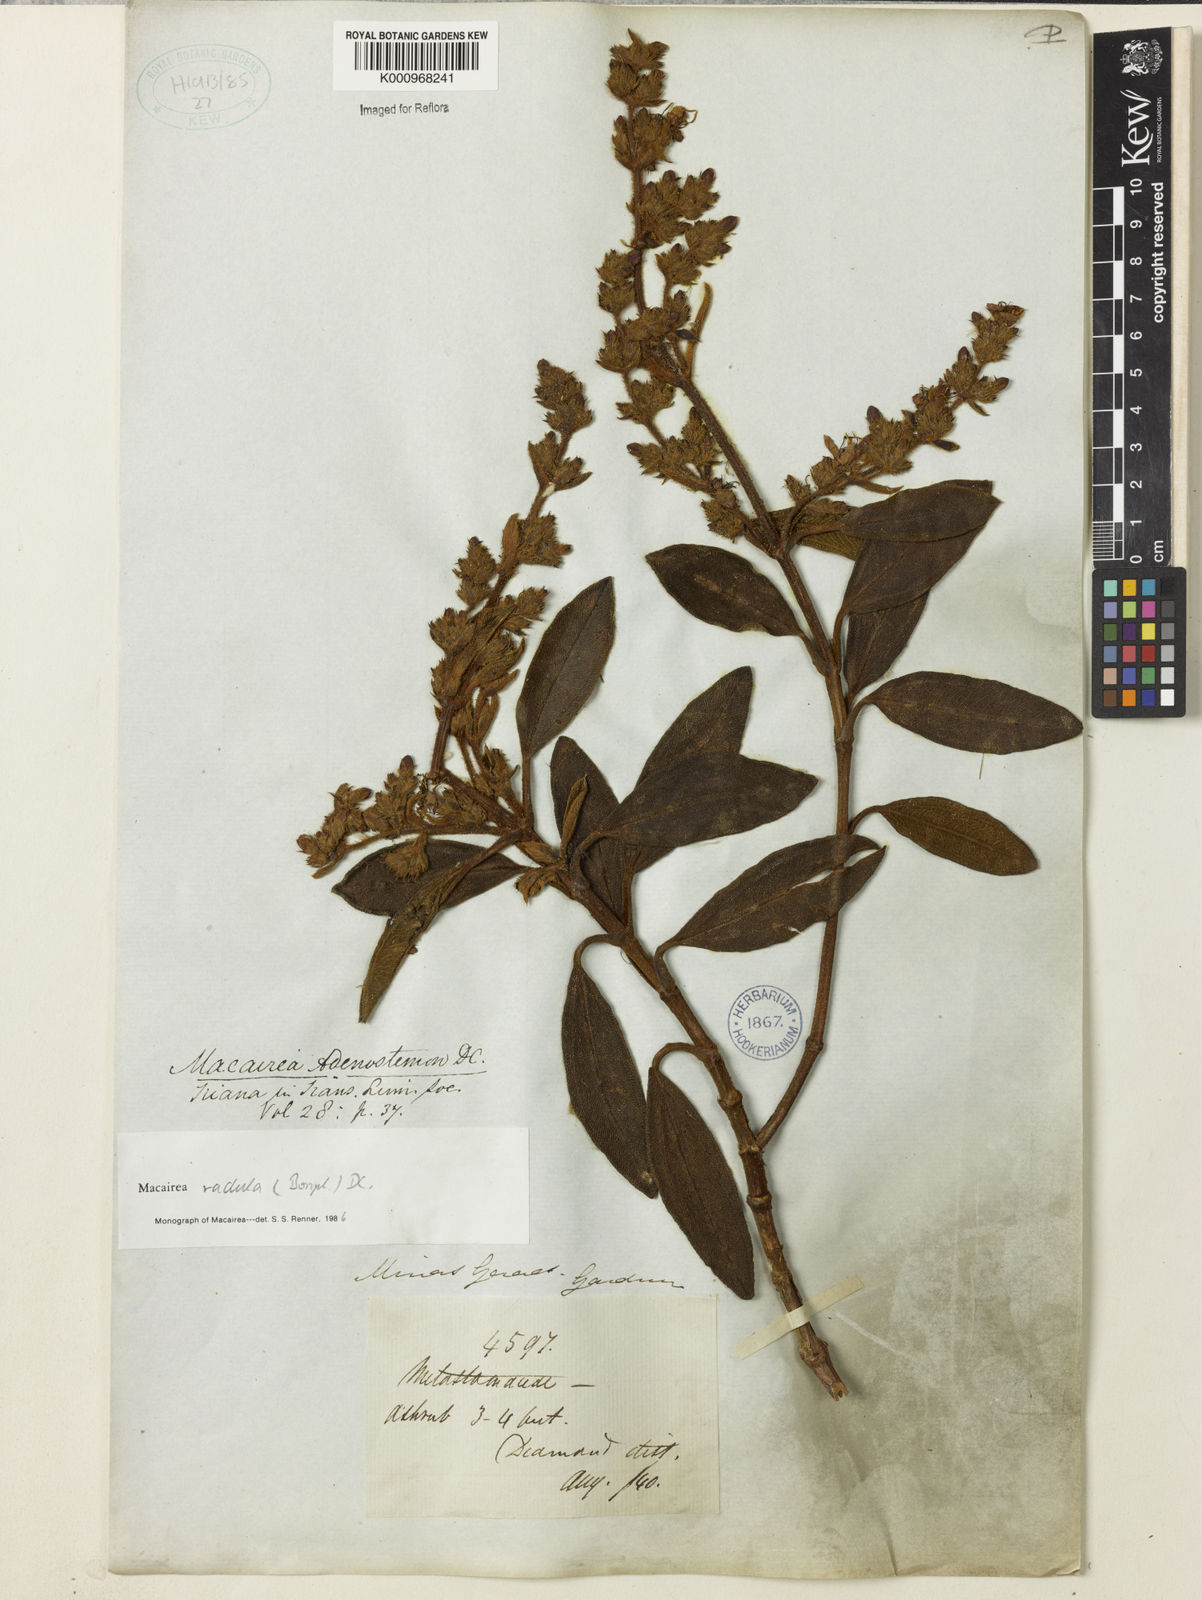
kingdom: Plantae
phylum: Tracheophyta
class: Magnoliopsida
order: Myrtales
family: Melastomataceae
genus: Macairea
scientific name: Macairea radula
